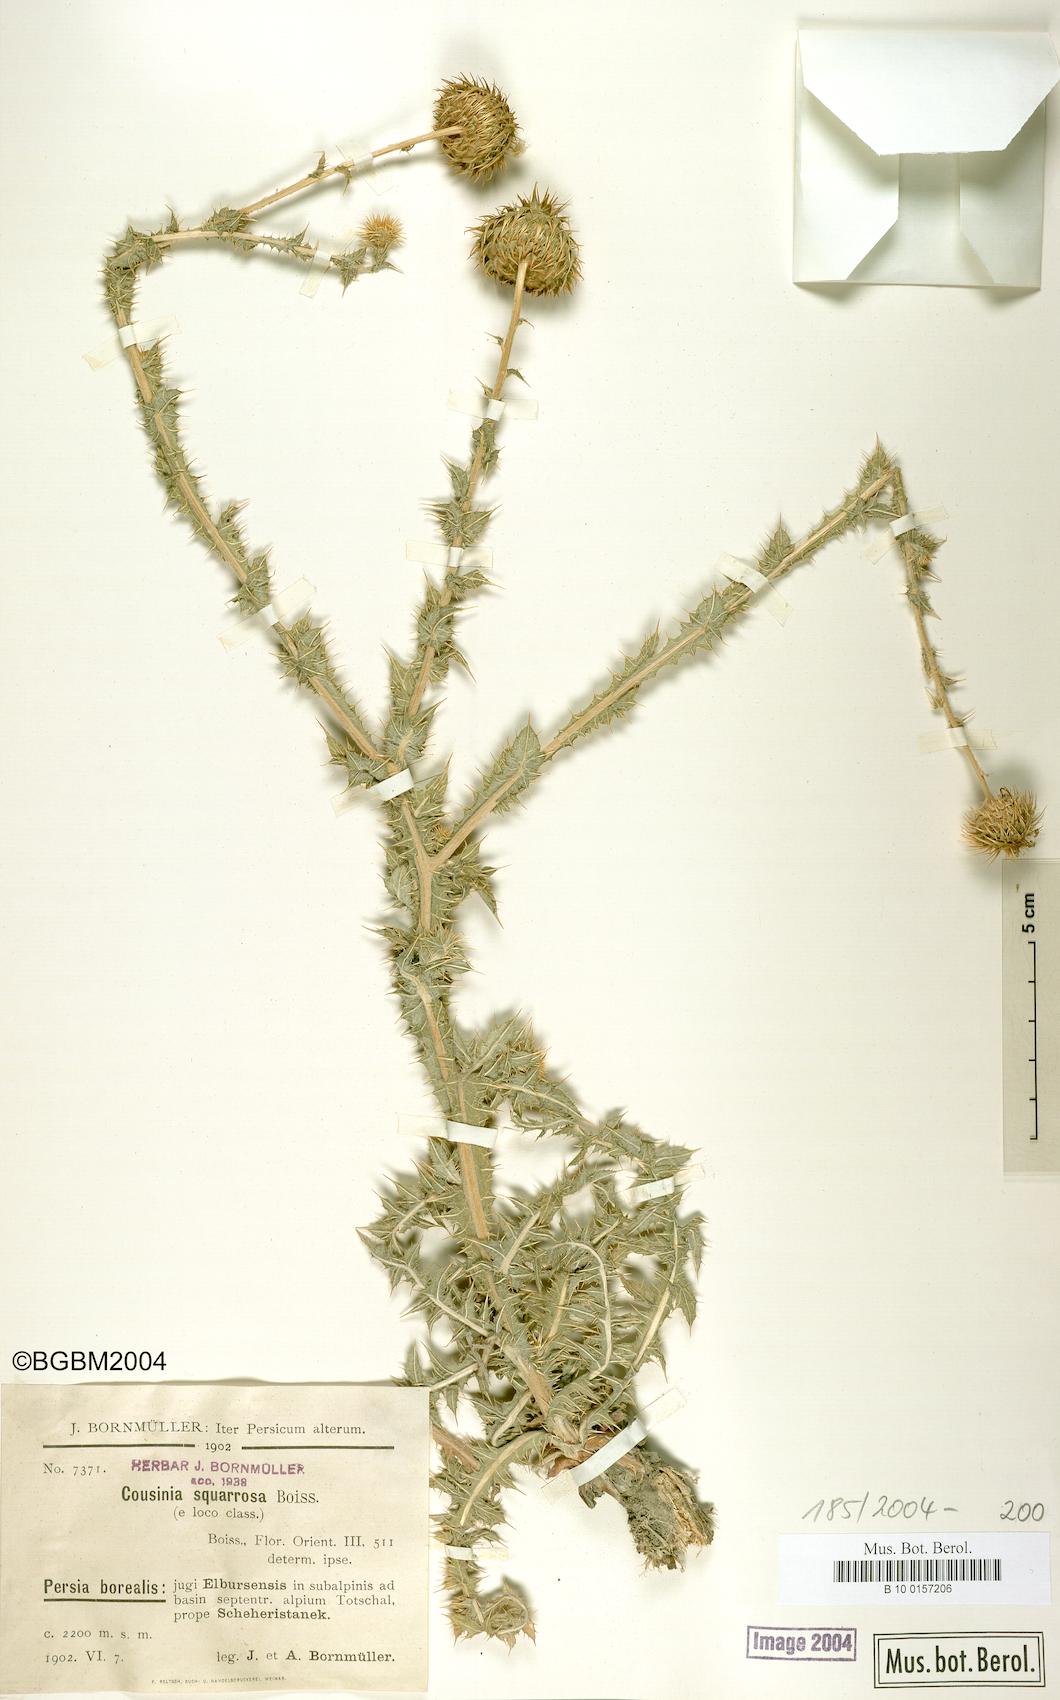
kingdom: Plantae
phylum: Tracheophyta
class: Magnoliopsida
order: Asterales
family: Asteraceae
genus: Cousinia
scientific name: Cousinia calocephala
